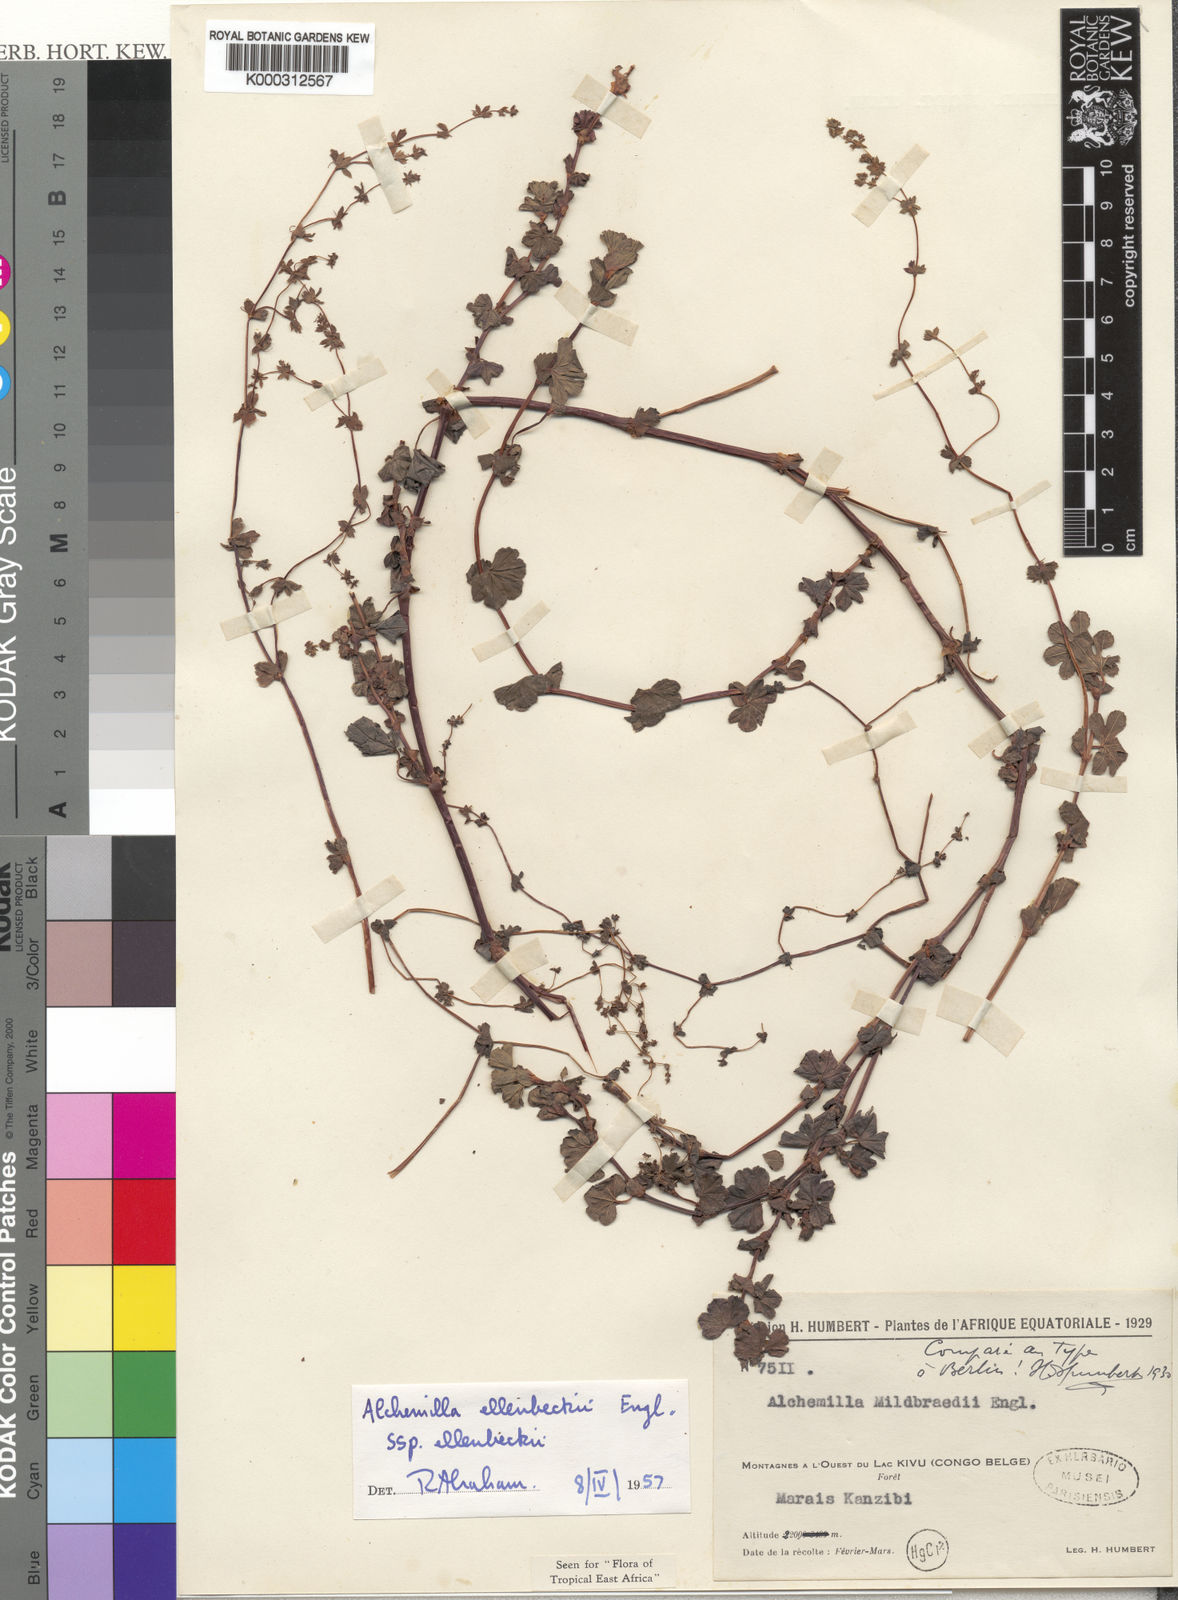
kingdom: Plantae
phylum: Tracheophyta
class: Magnoliopsida
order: Rosales
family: Rosaceae
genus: Alchemilla
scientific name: Alchemilla ellenbeckii
